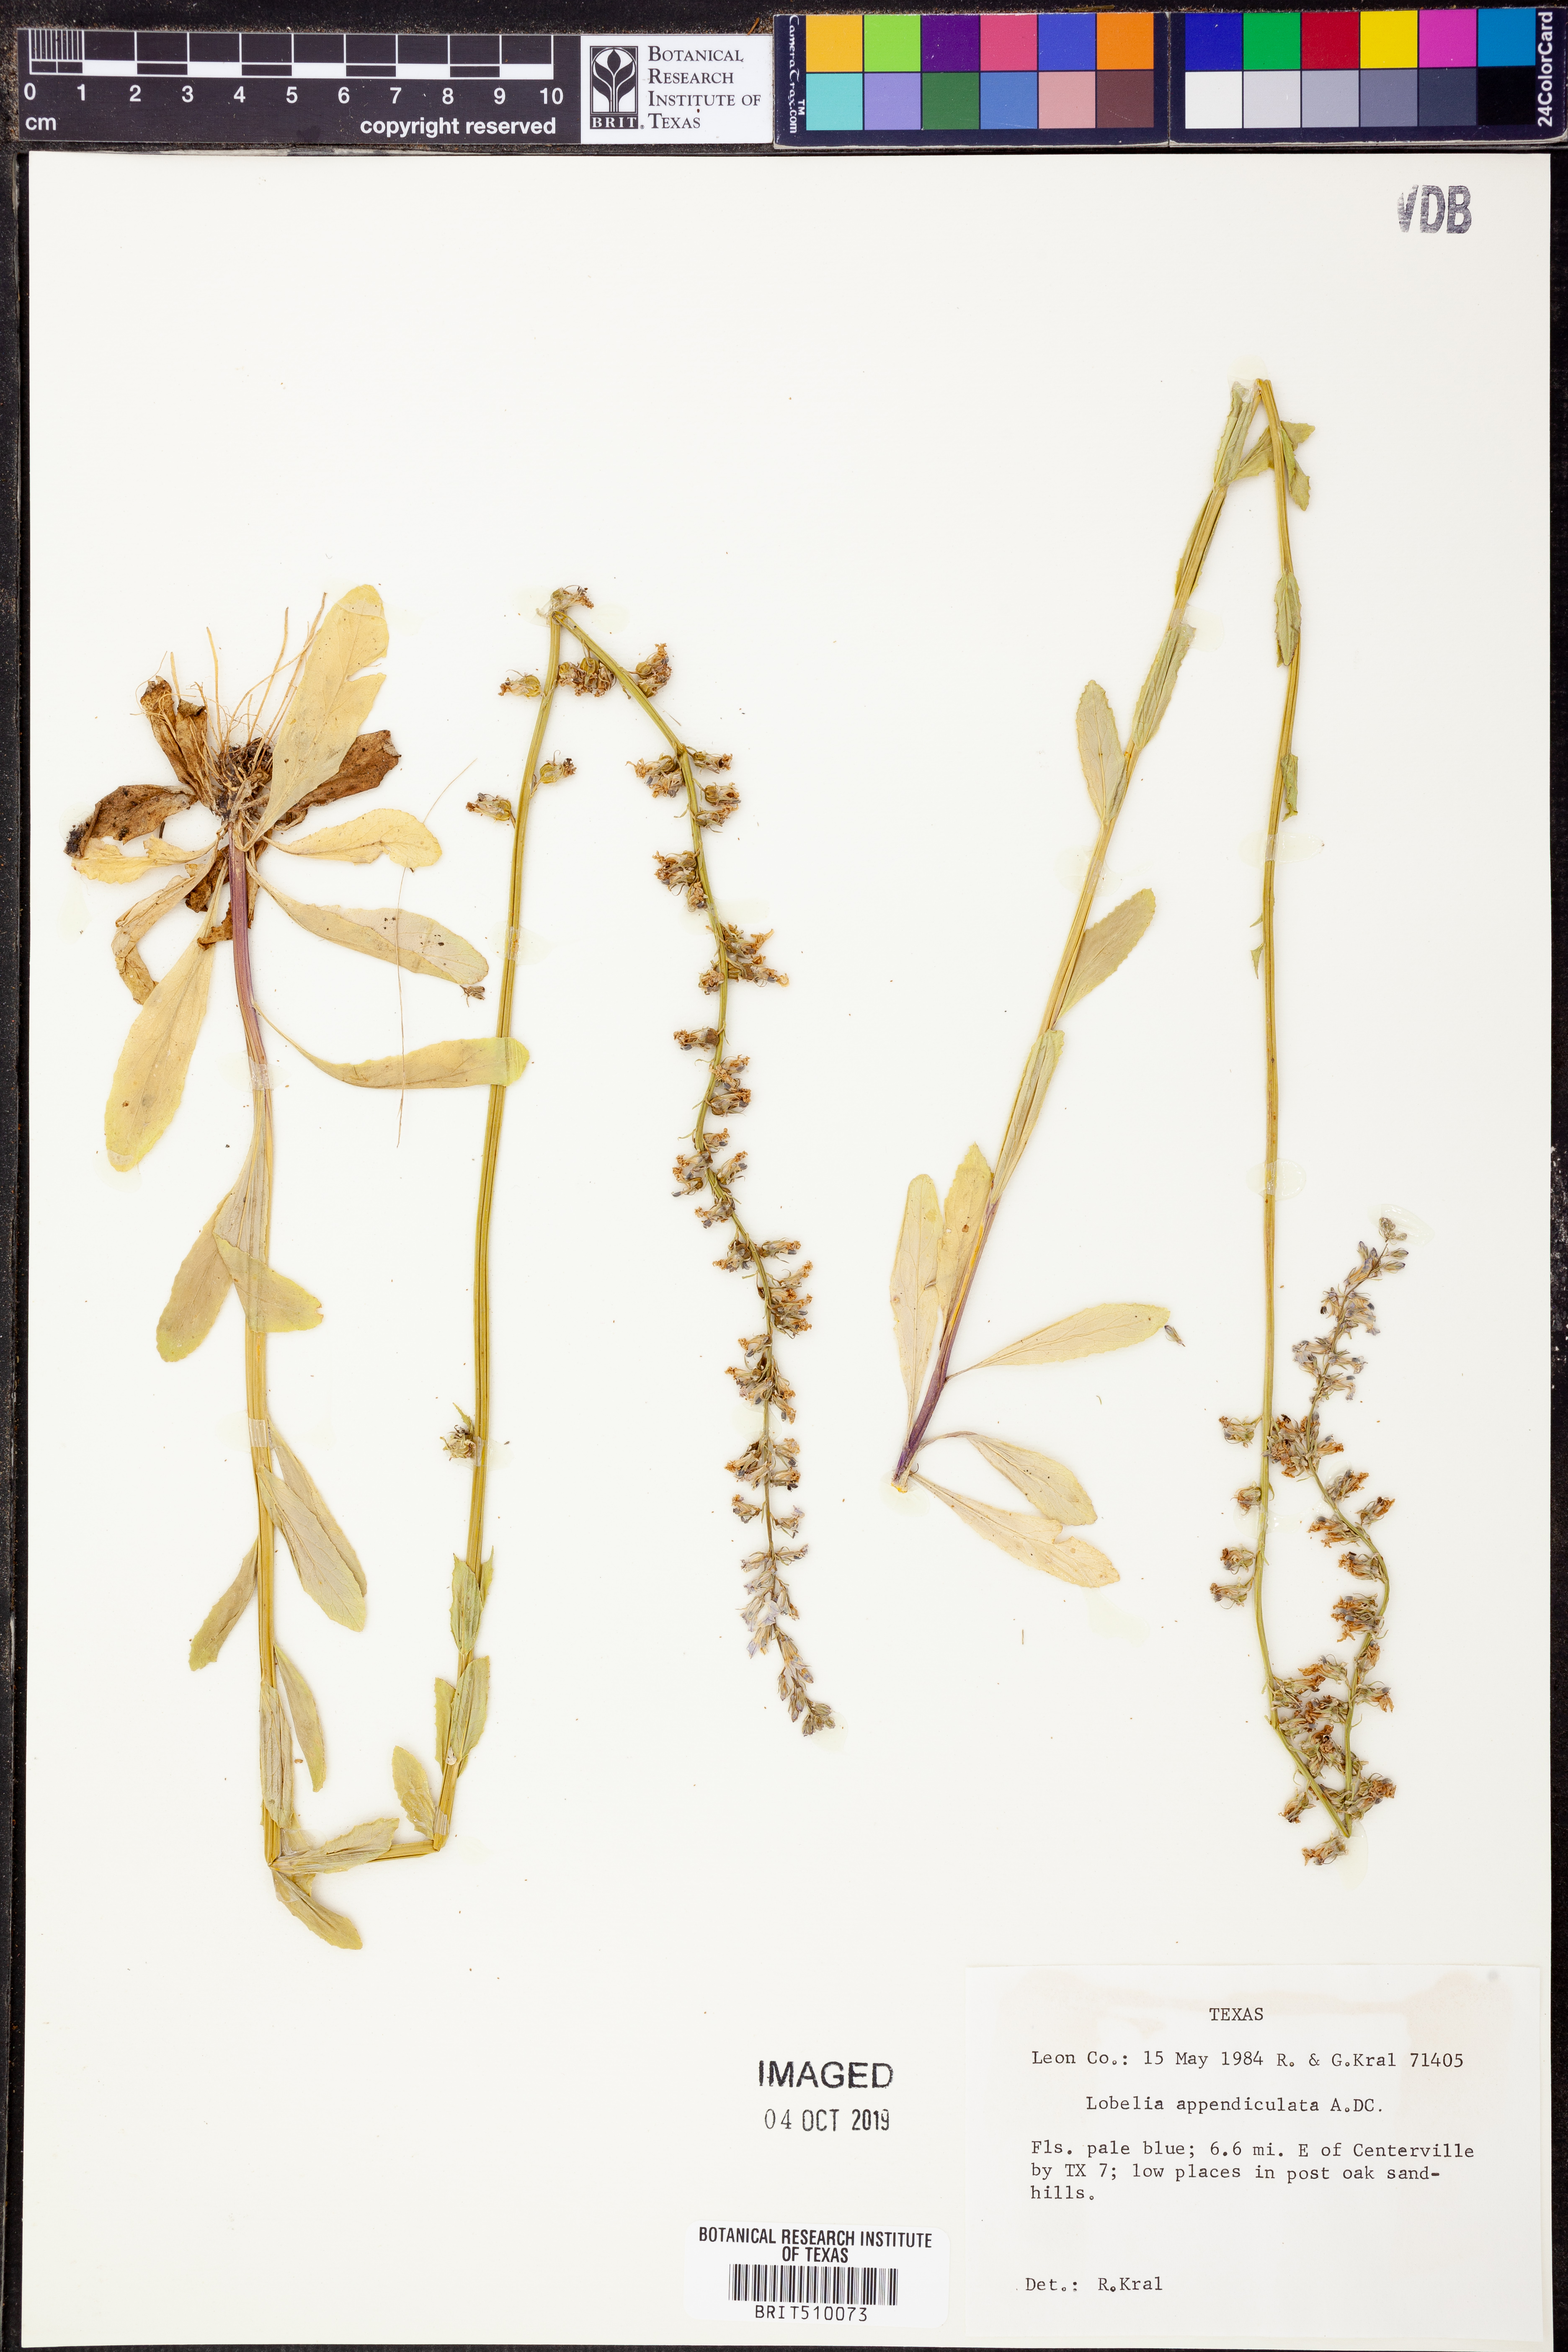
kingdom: Plantae
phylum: Tracheophyta
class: Magnoliopsida
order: Asterales
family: Campanulaceae
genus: Lobelia
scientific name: Lobelia appendiculata
